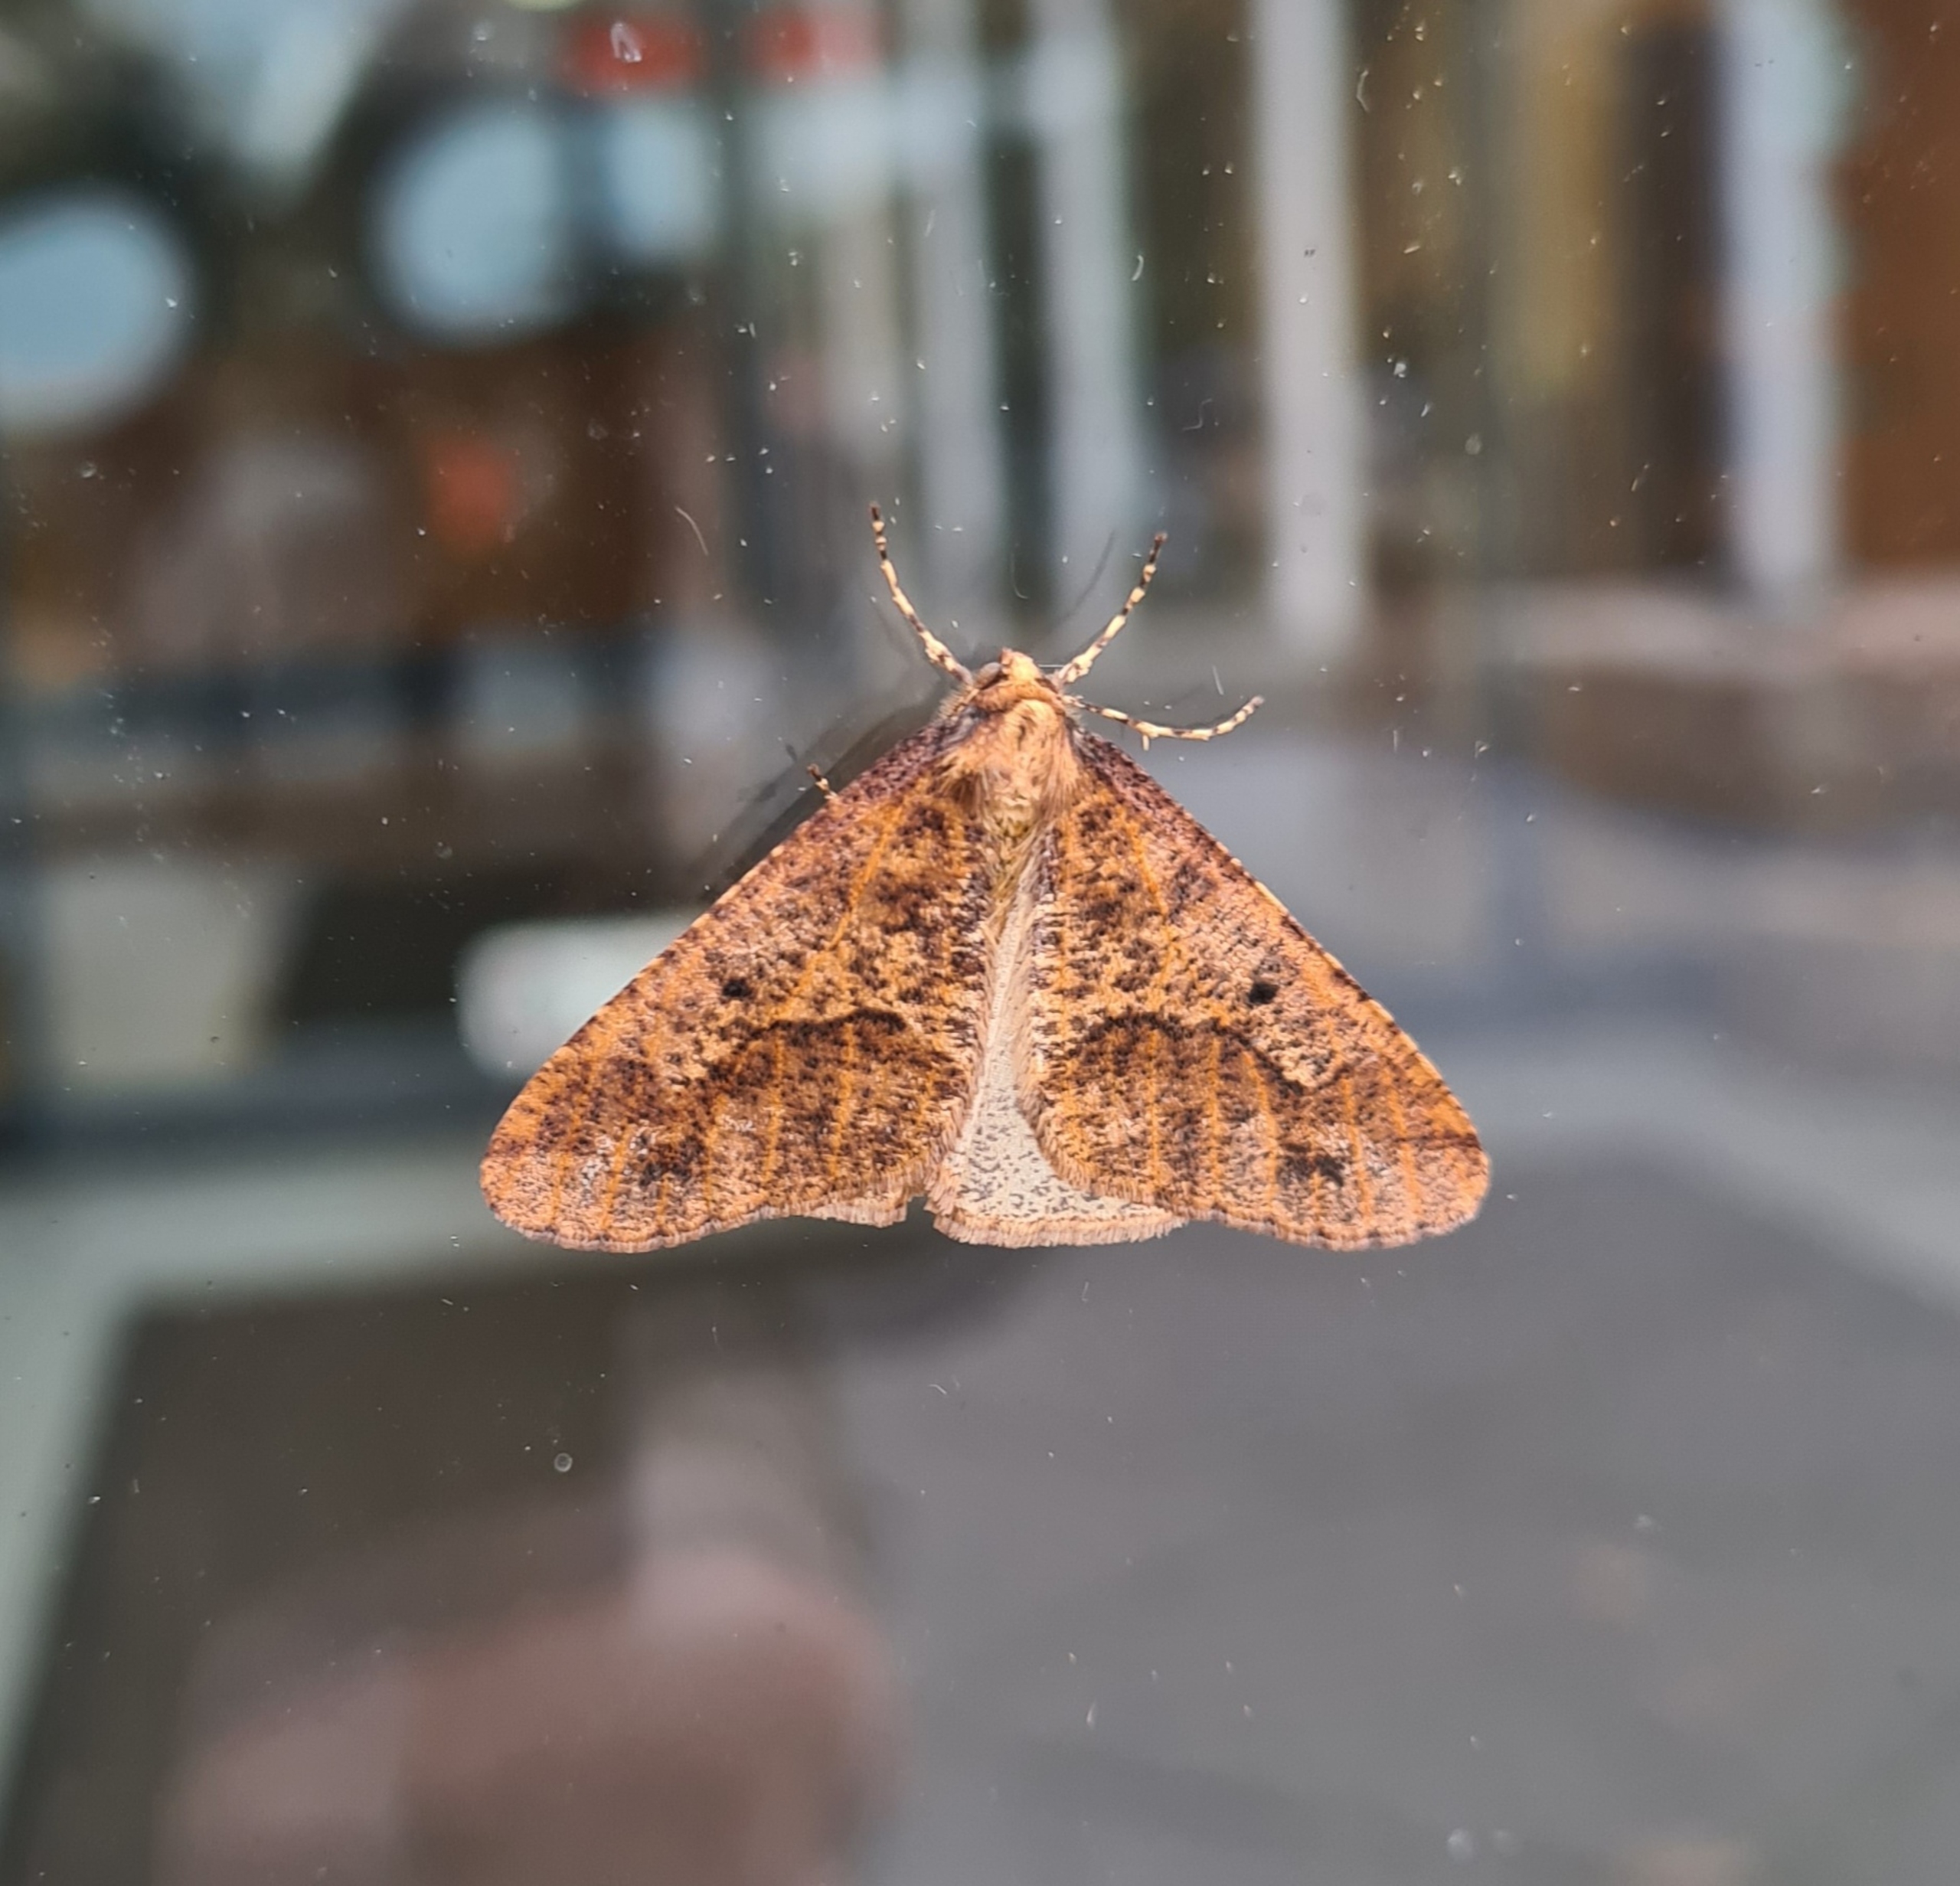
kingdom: Animalia
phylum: Arthropoda
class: Insecta
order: Lepidoptera
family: Geometridae
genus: Erannis
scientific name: Erannis defoliaria
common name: Stor frostmåler
